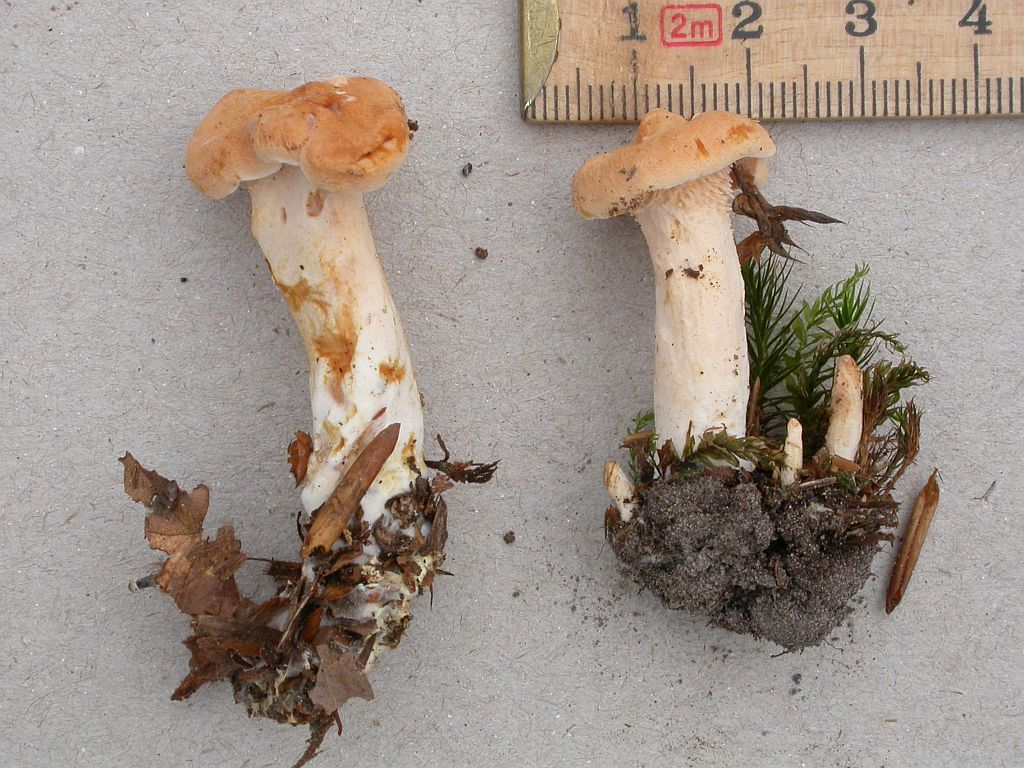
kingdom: Fungi
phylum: Basidiomycota
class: Agaricomycetes
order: Cantharellales
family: Hydnaceae
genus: Hydnum
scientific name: Hydnum rufescens
